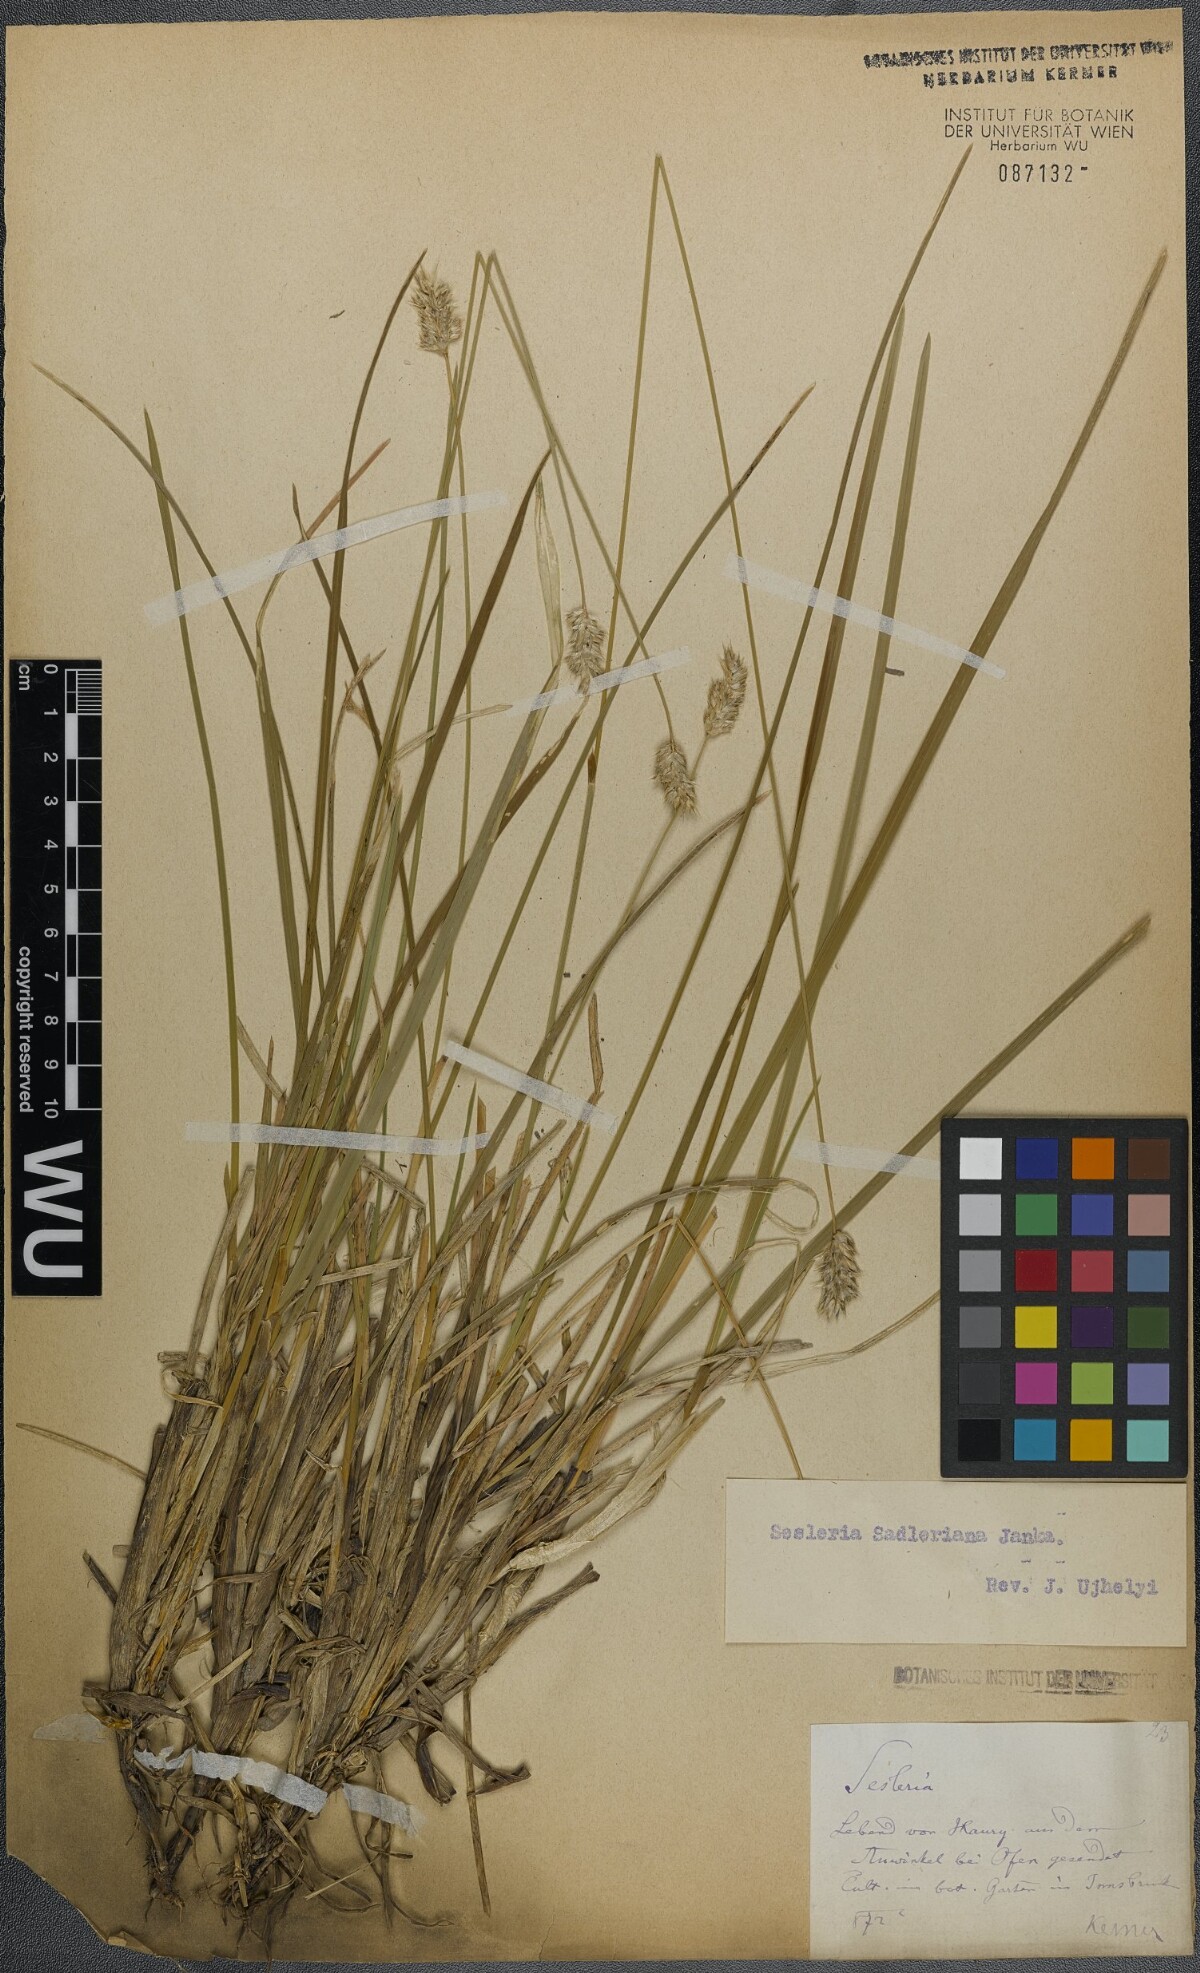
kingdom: Plantae
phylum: Tracheophyta
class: Liliopsida
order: Poales
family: Poaceae
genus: Sesleria
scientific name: Sesleria sadleriana
